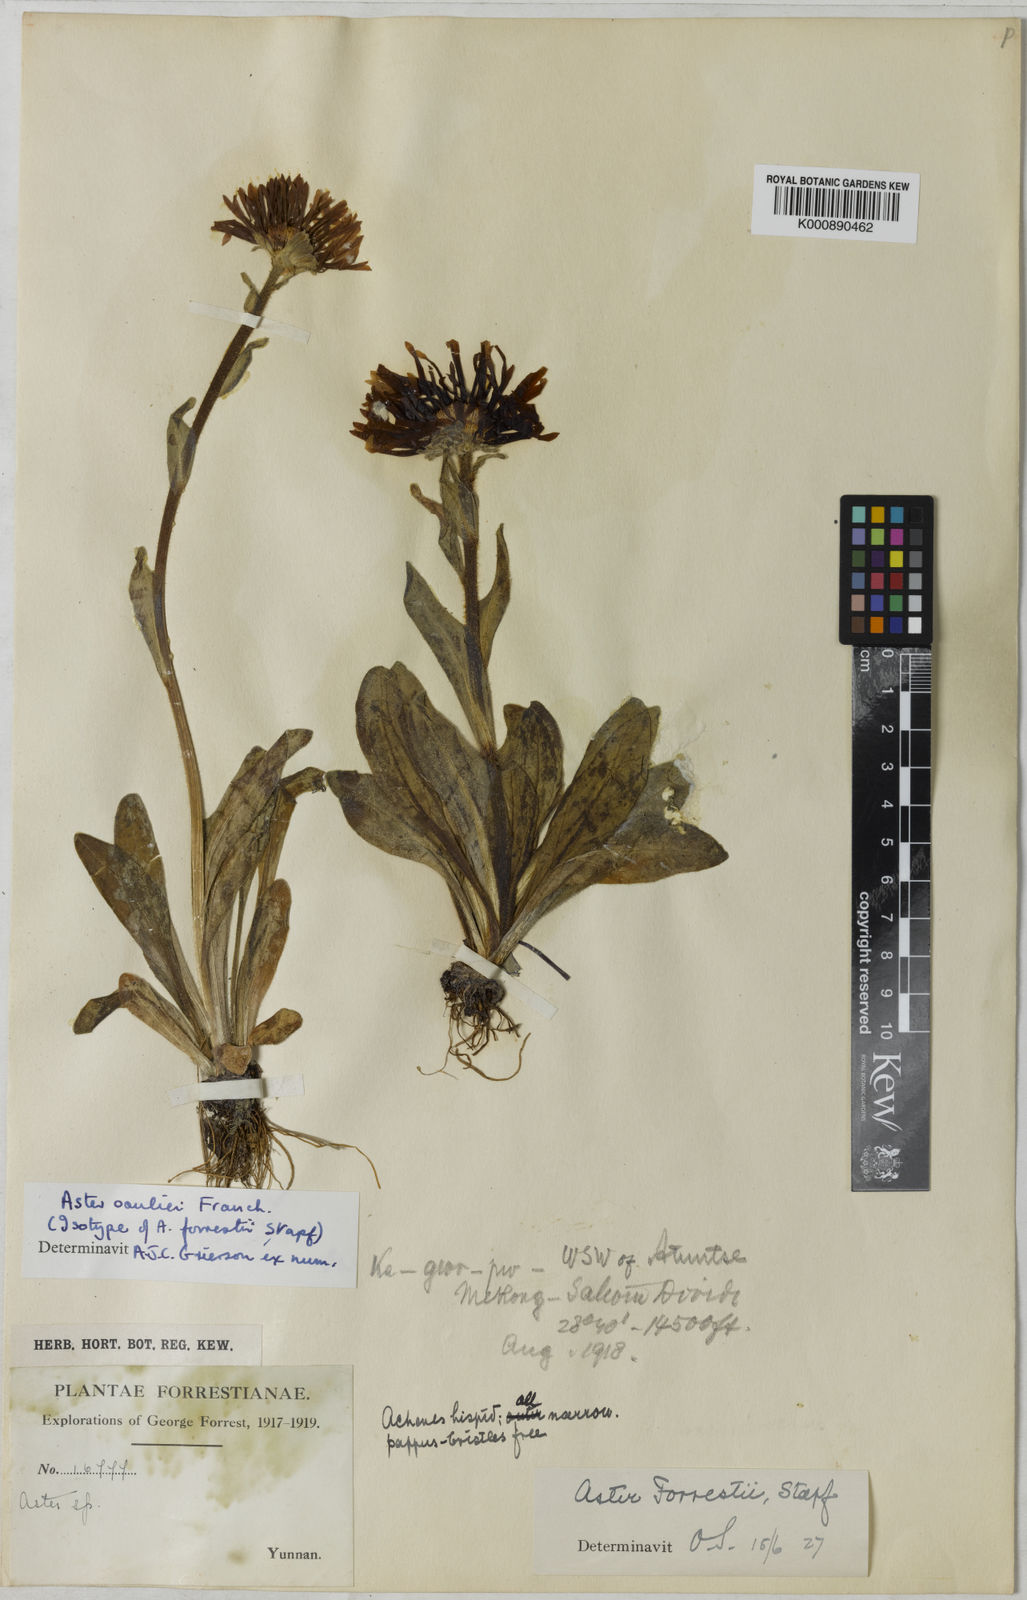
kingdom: Plantae
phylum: Tracheophyta
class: Magnoliopsida
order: Asterales
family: Asteraceae
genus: Aster
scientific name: Aster souliei
